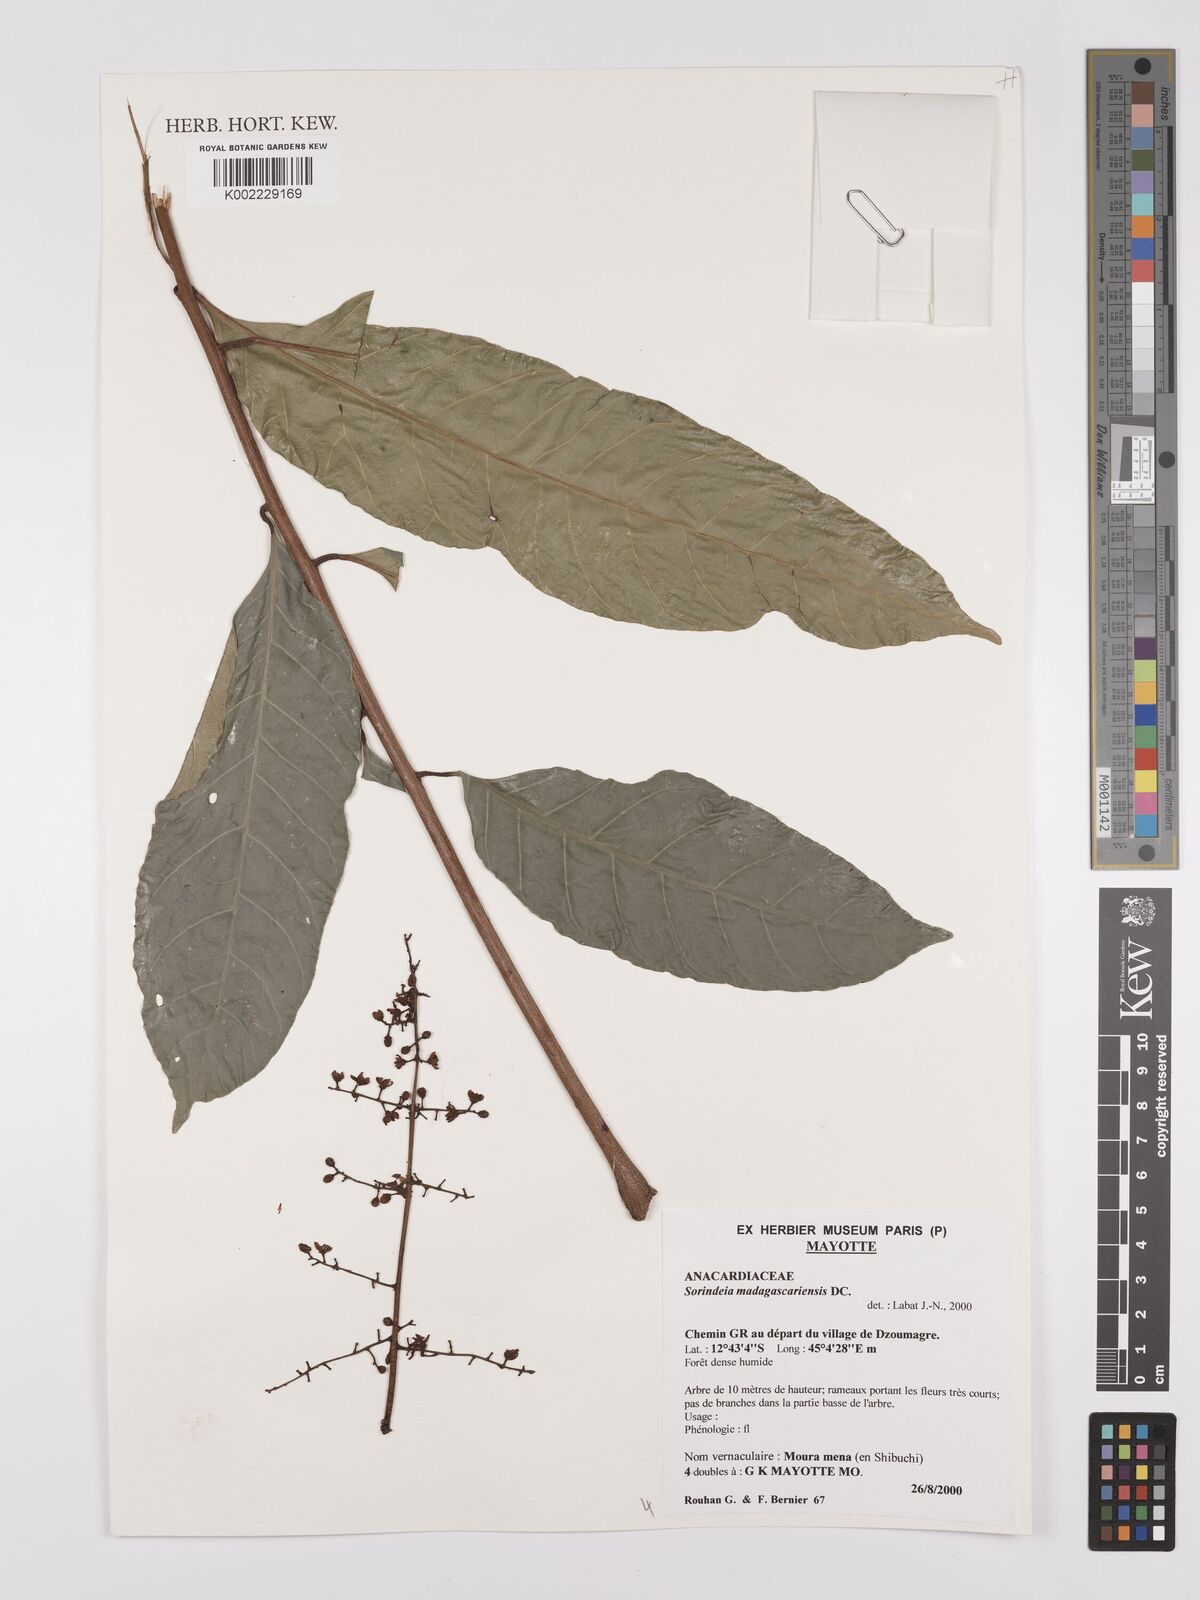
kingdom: Plantae
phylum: Tracheophyta
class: Magnoliopsida
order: Sapindales
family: Anacardiaceae
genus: Sorindeia
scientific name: Sorindeia madagascariensis
